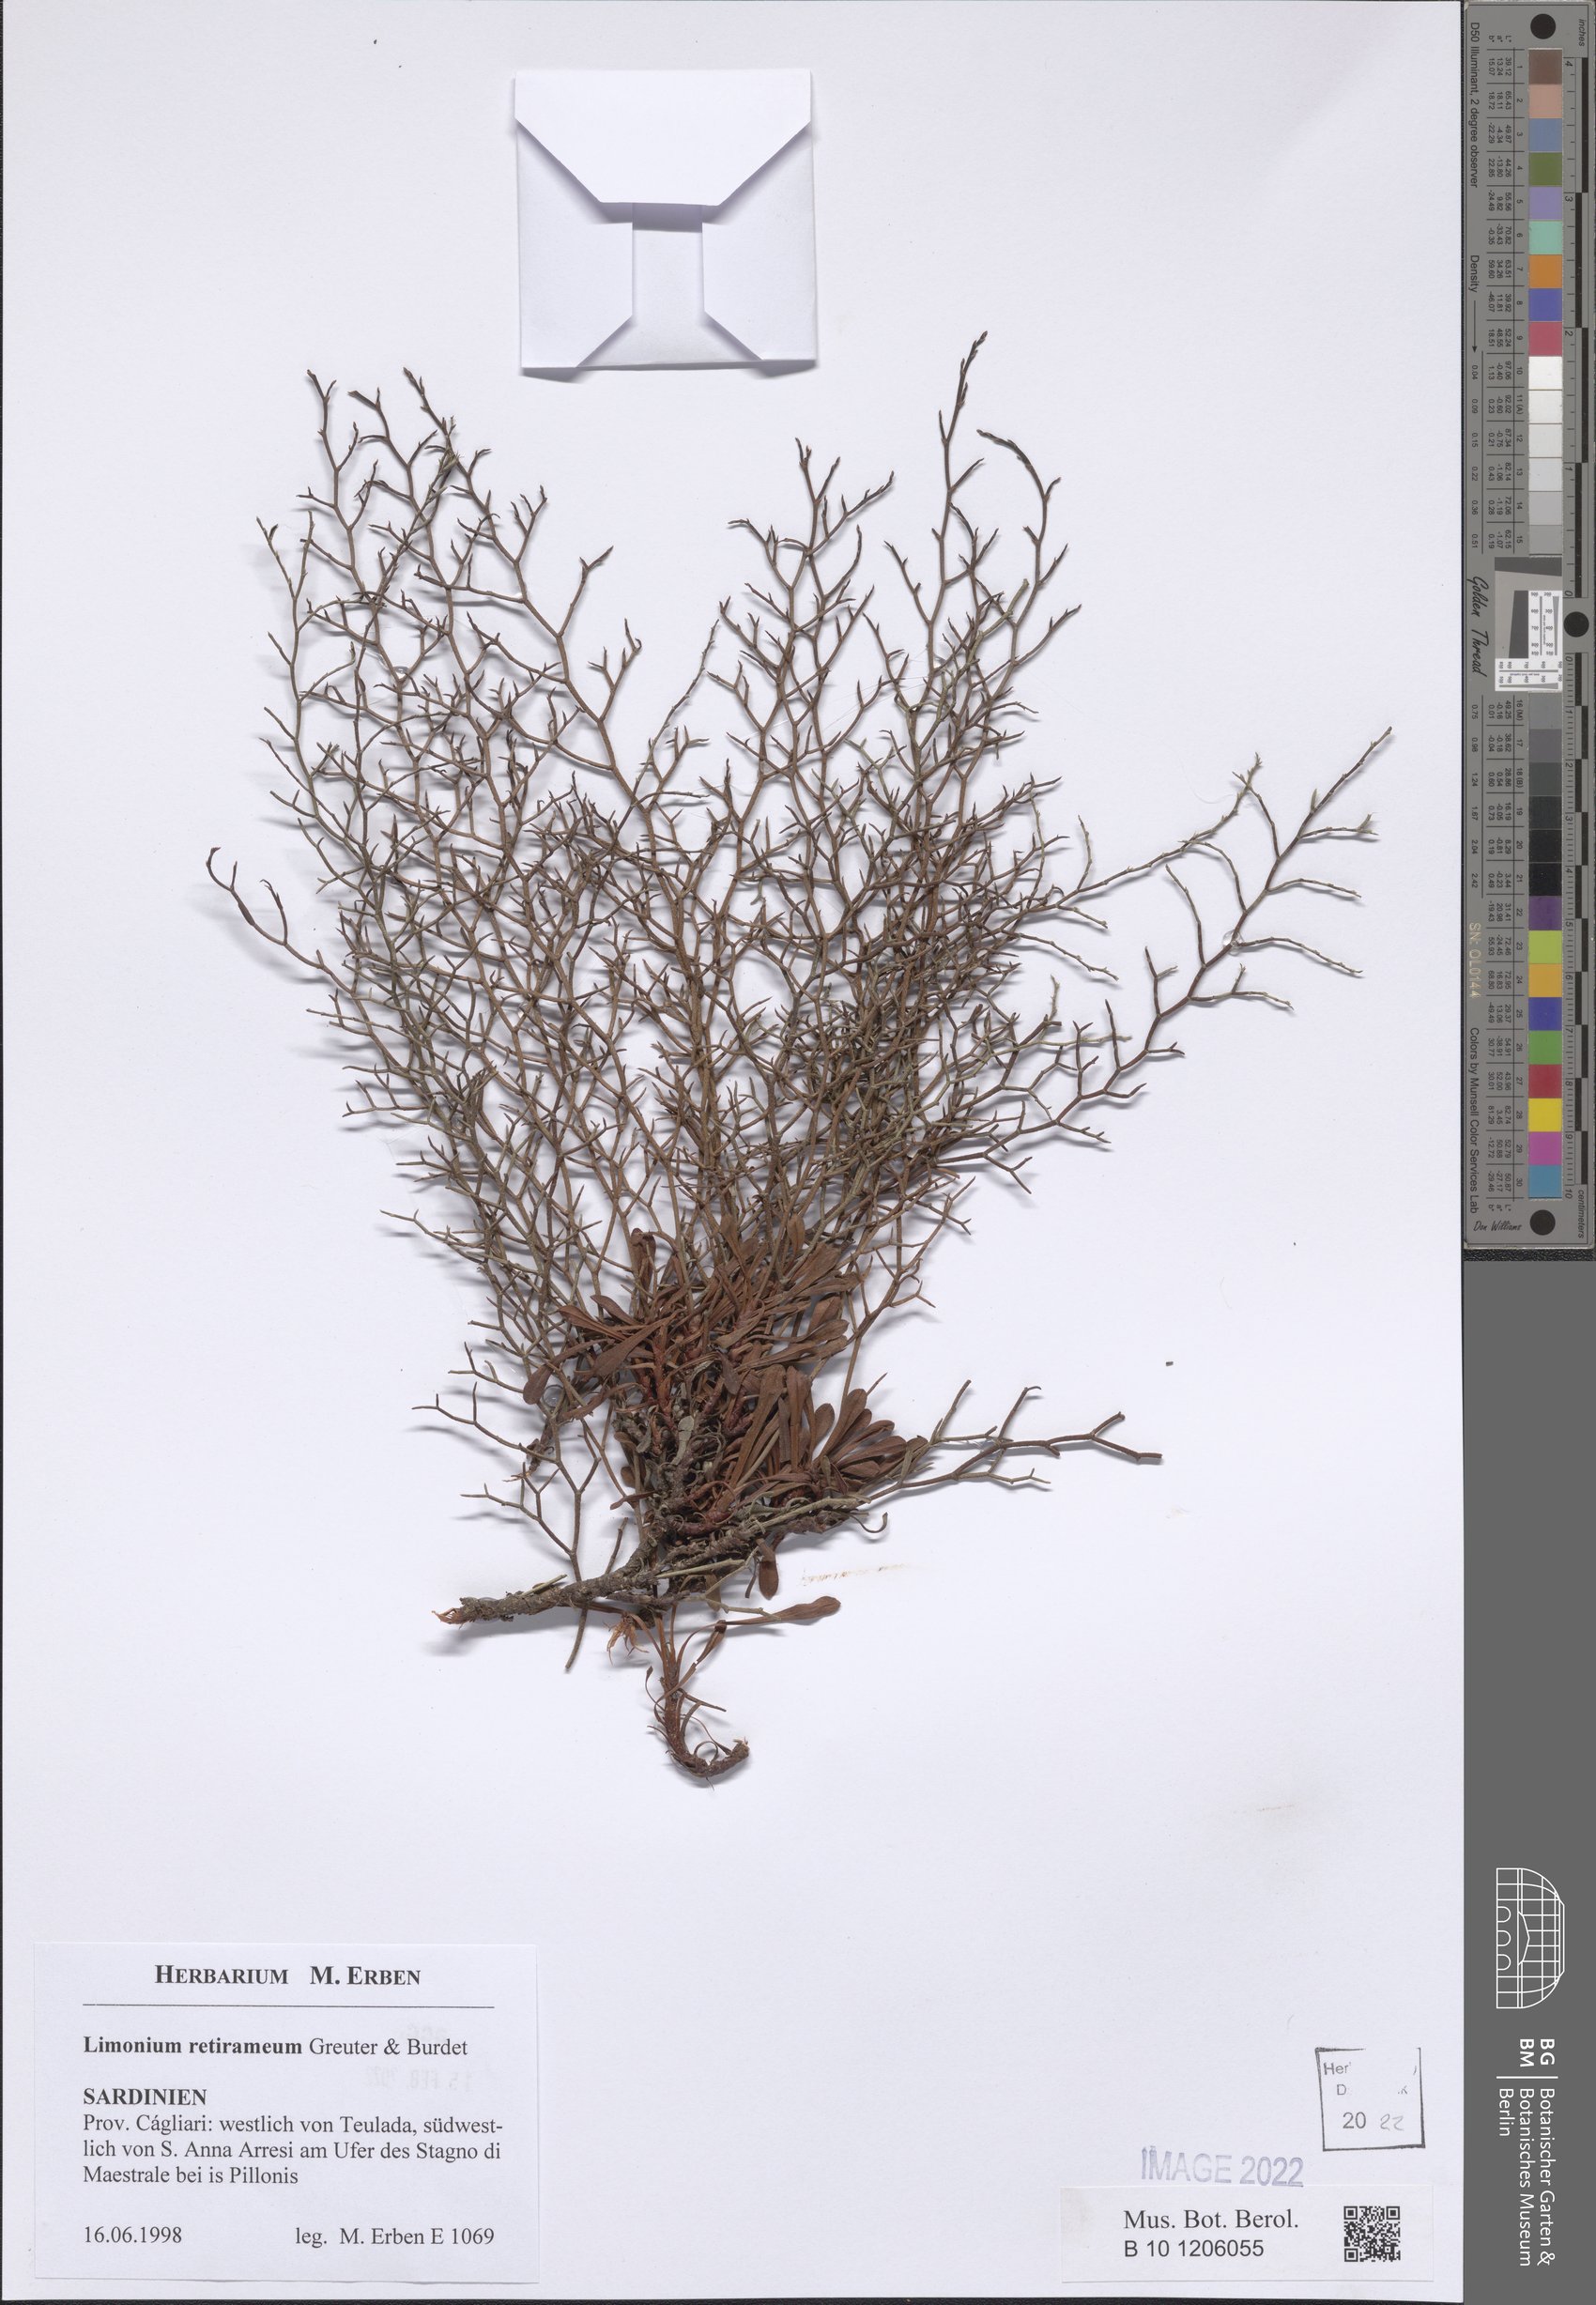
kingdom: Plantae
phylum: Tracheophyta
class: Magnoliopsida
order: Caryophyllales
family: Plumbaginaceae
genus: Limonium
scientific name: Limonium retirameum
